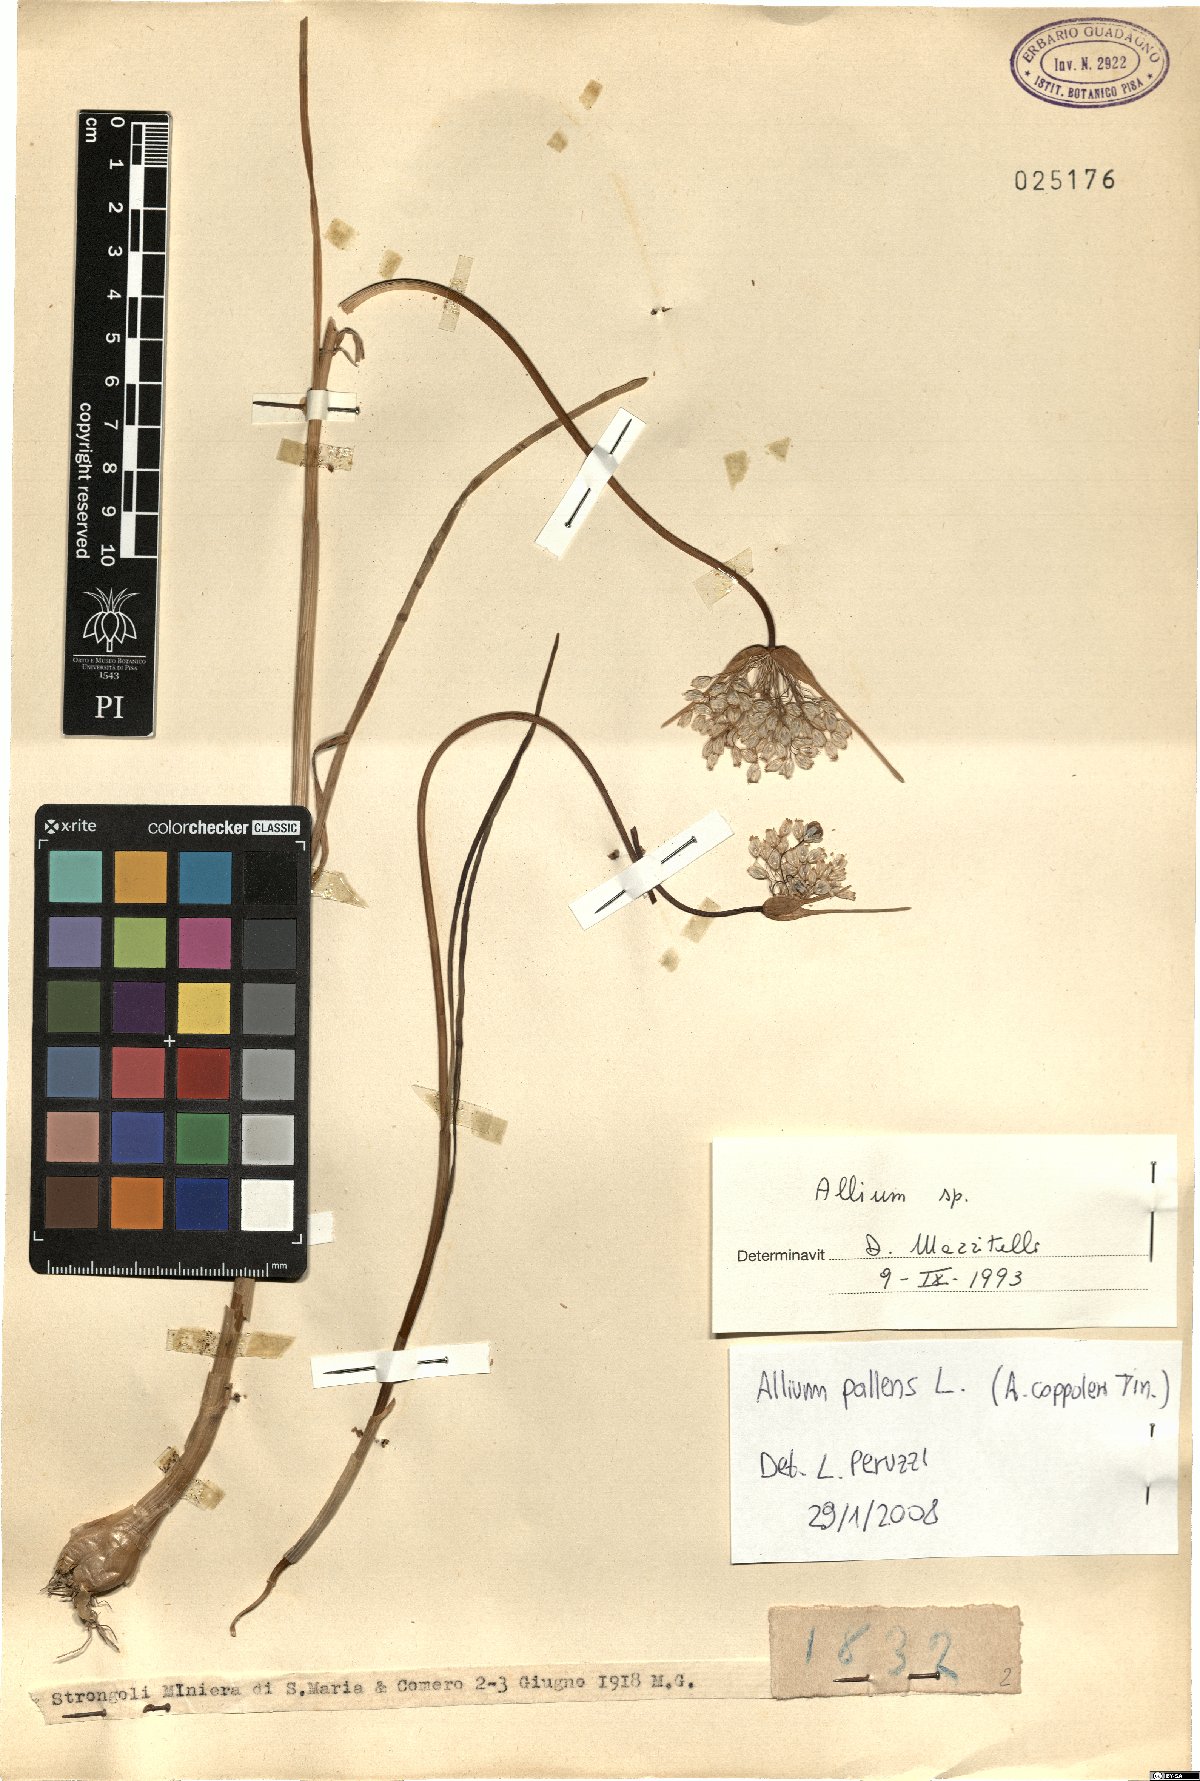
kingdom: Plantae
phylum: Tracheophyta
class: Liliopsida
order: Asparagales
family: Amaryllidaceae
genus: Allium
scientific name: Allium pallens
